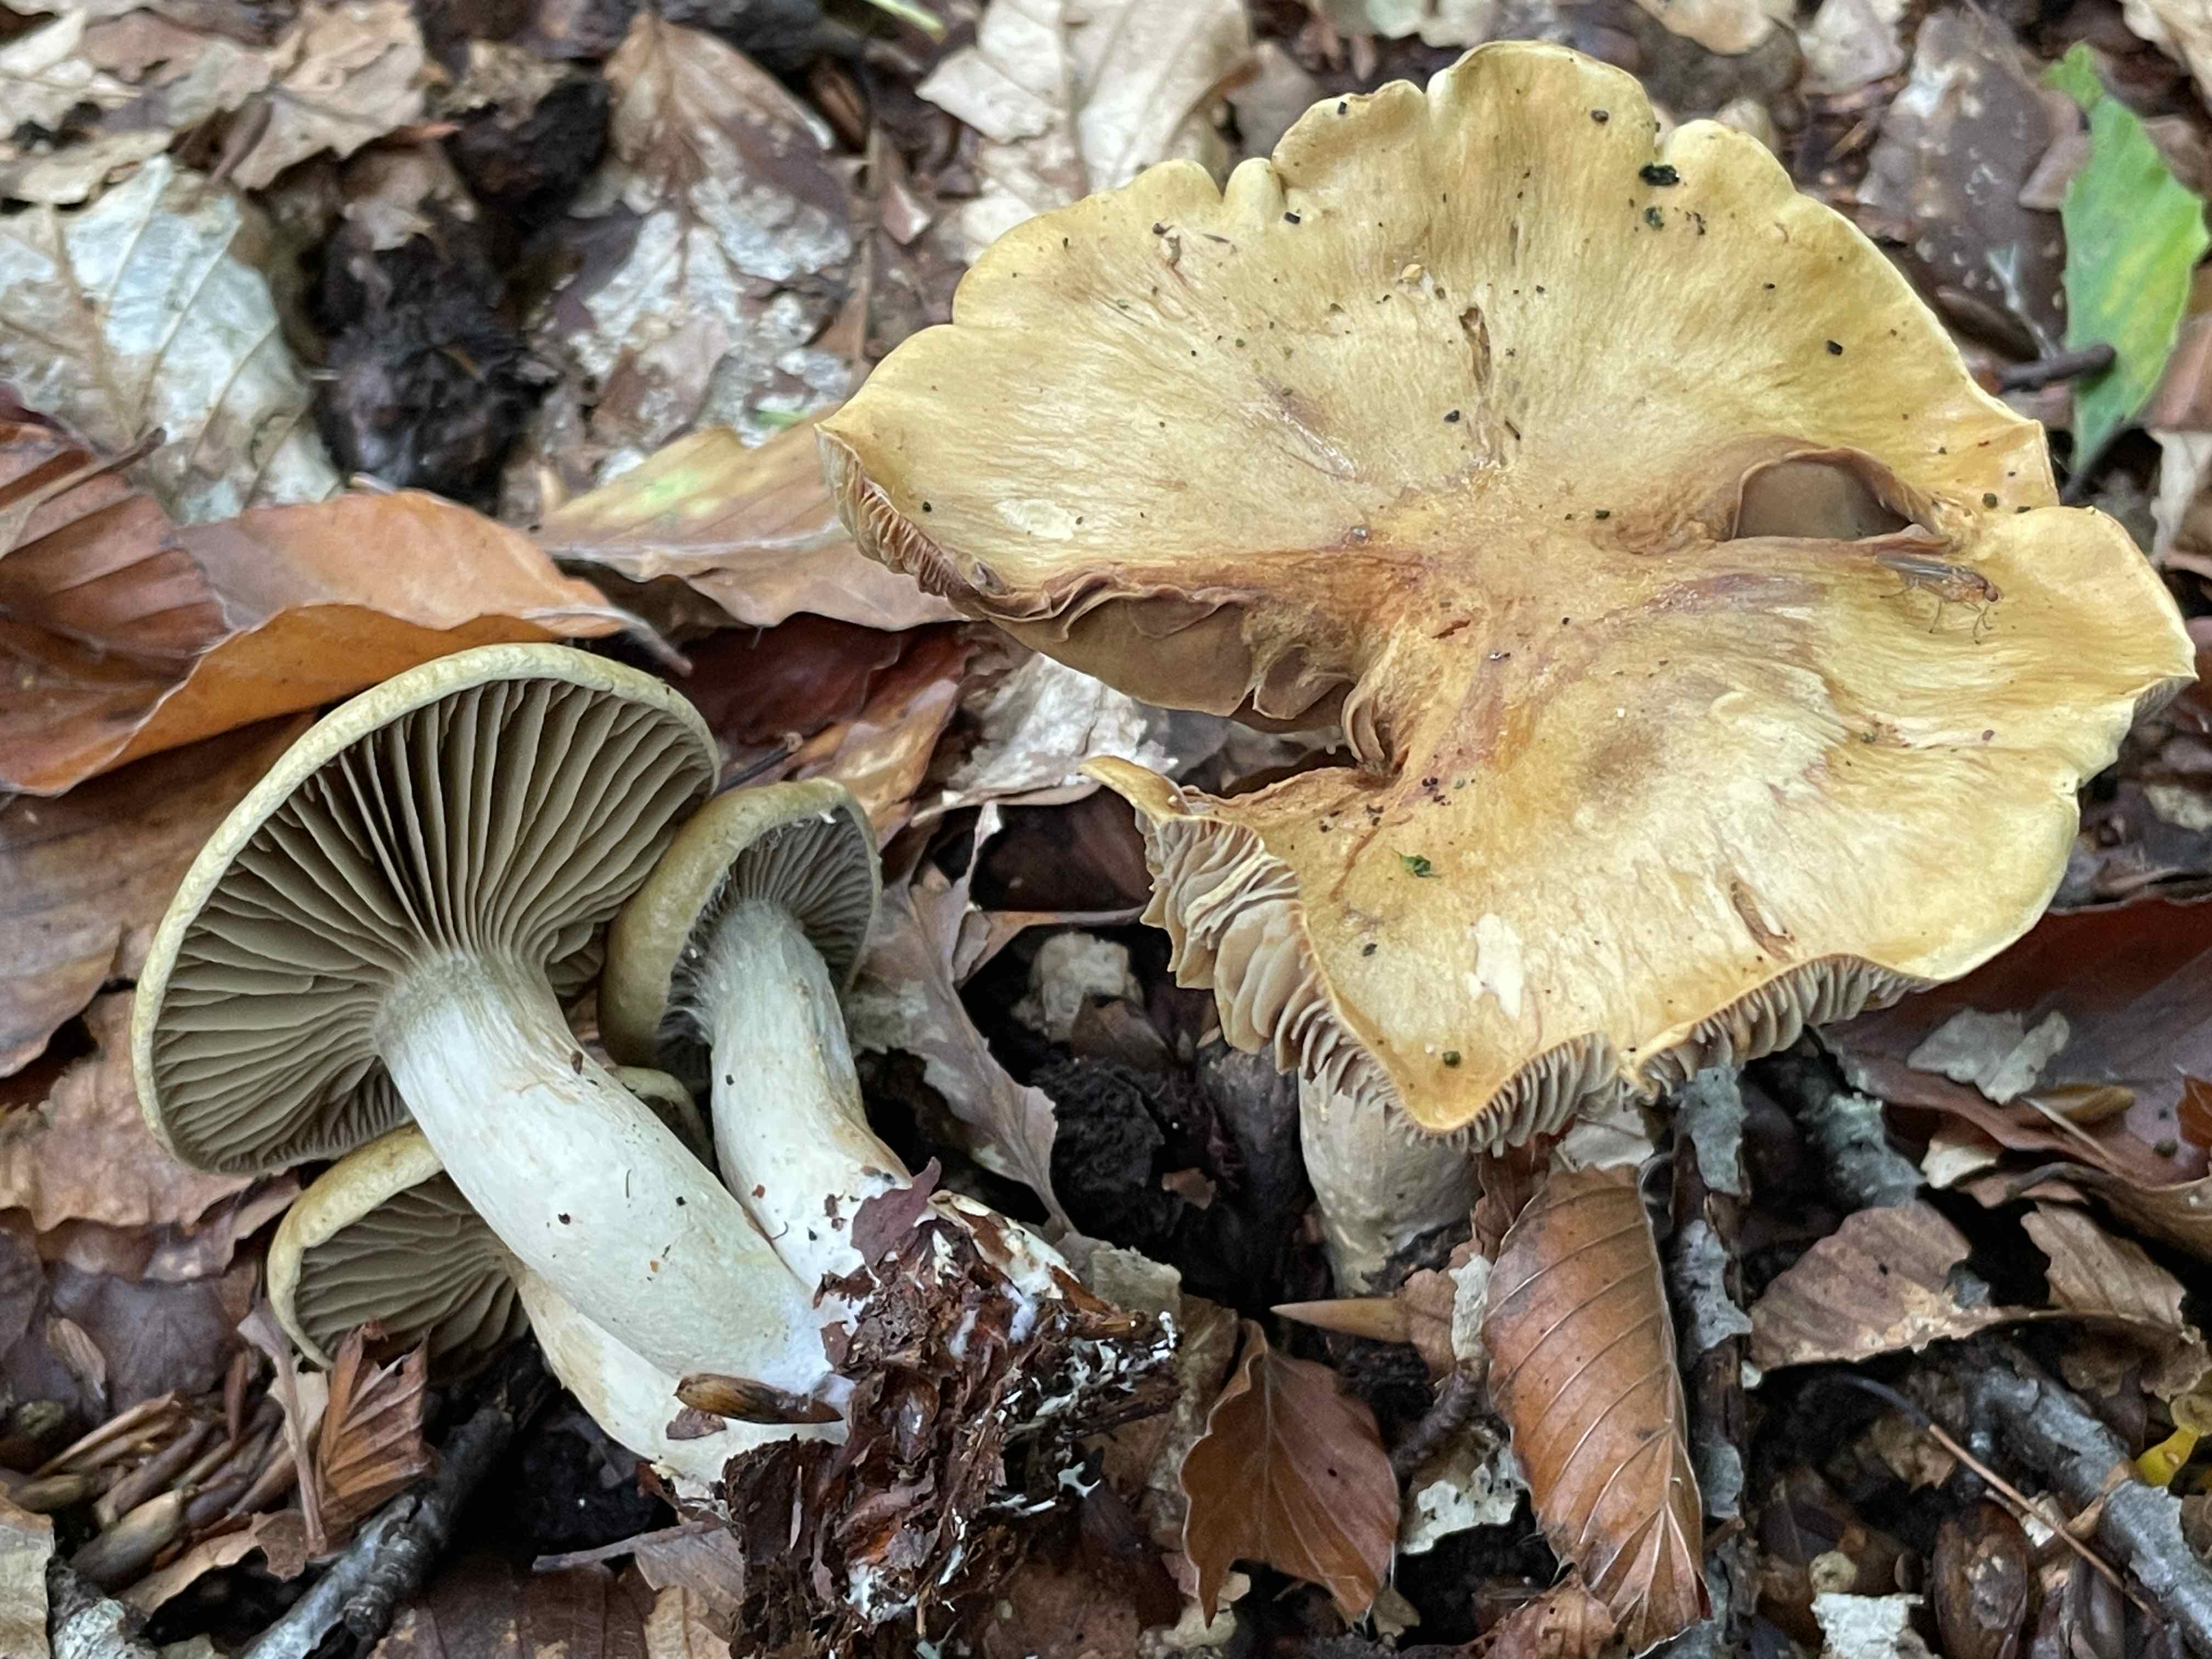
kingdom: Fungi
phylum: Basidiomycota
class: Agaricomycetes
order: Agaricales
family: Cortinariaceae
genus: Cortinarius
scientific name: Cortinarius subtortus
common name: olivengul slørhat
